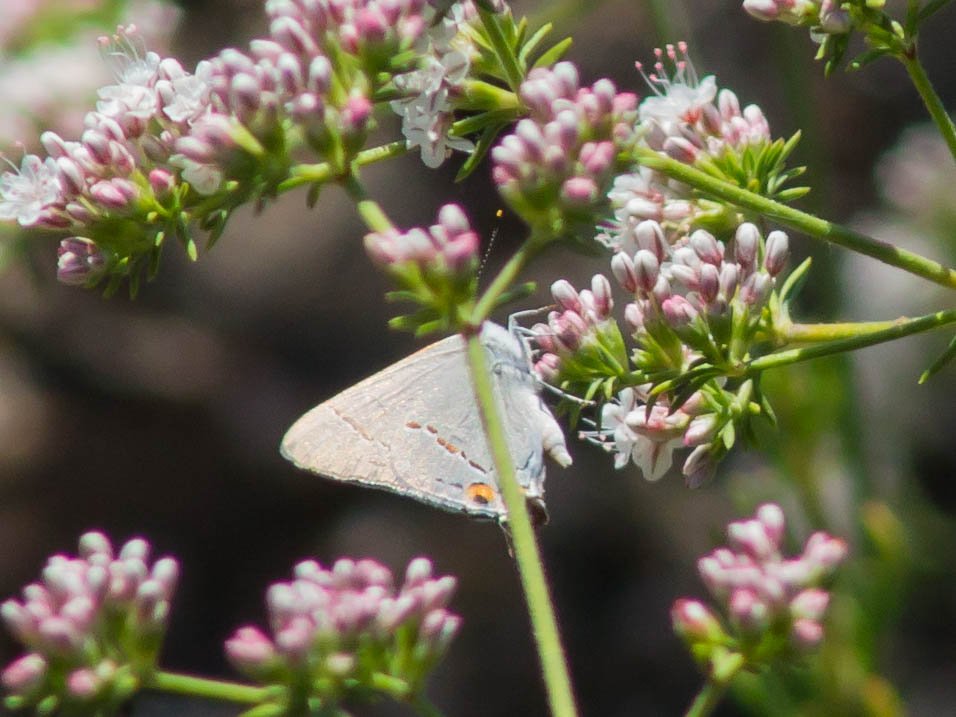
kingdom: Animalia
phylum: Arthropoda
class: Insecta
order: Lepidoptera
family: Lycaenidae
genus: Strymon
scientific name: Strymon melinus
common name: Gray Hairstreak
